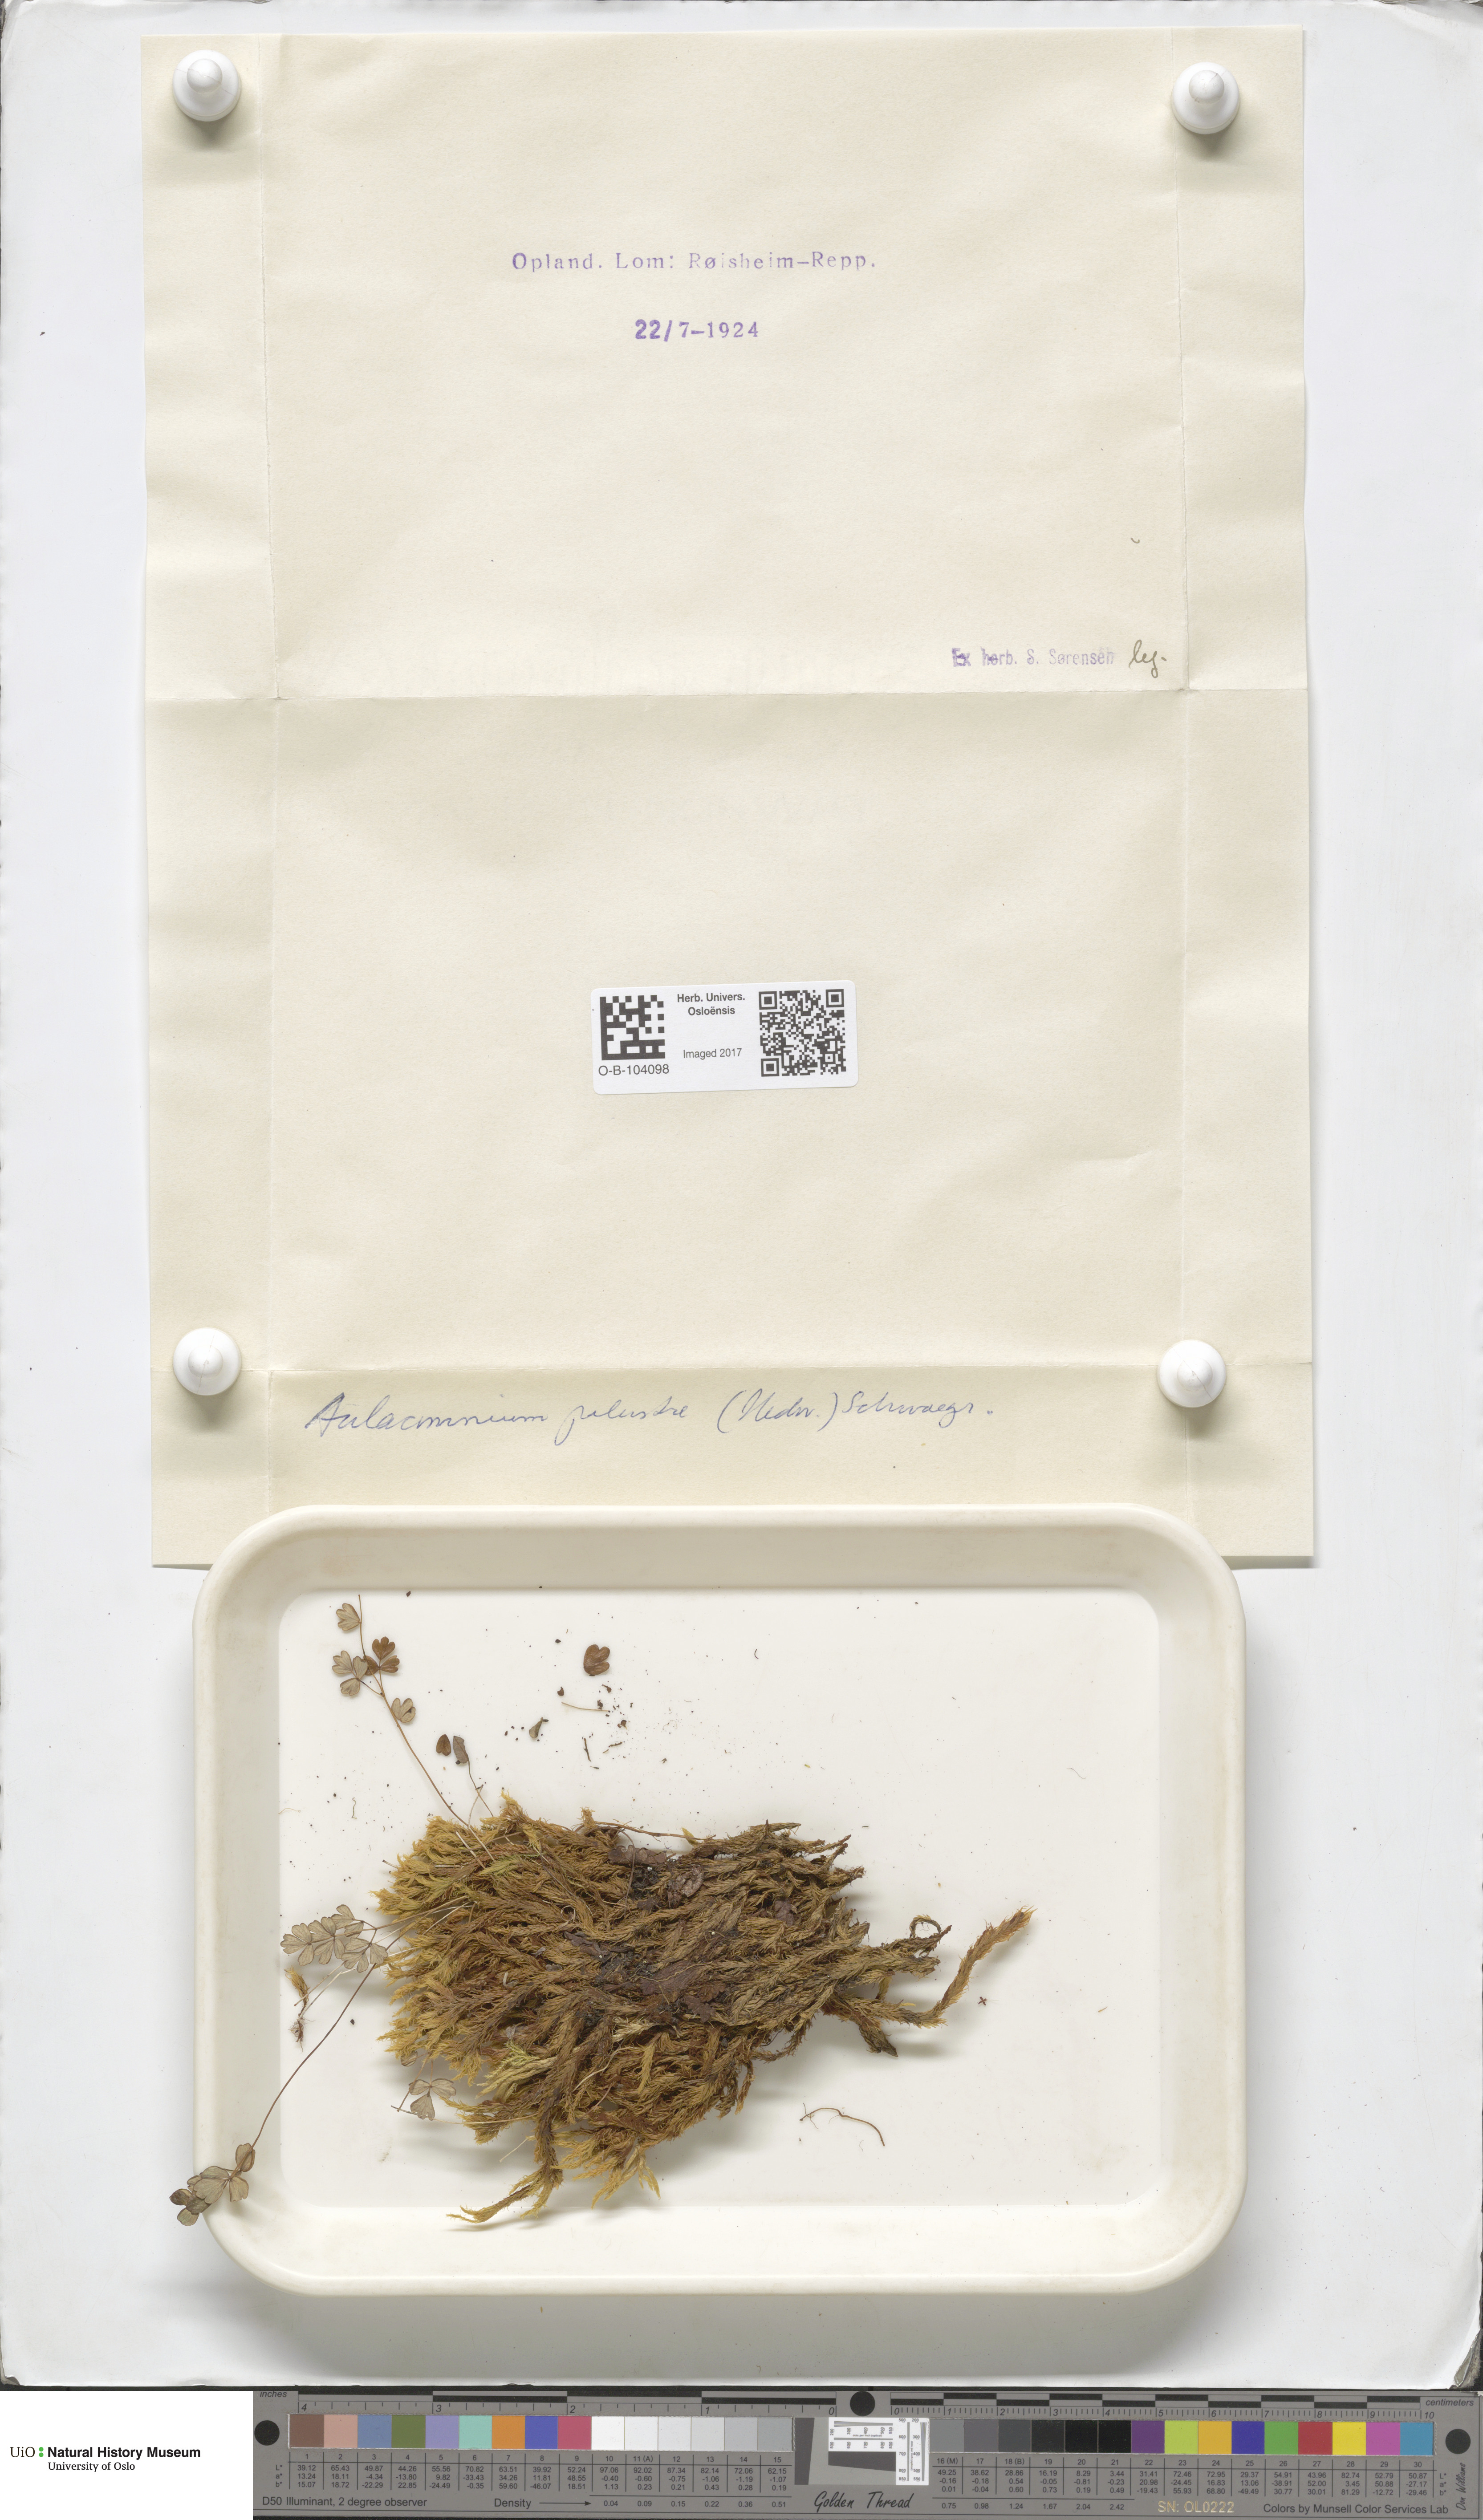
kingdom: Plantae
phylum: Bryophyta
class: Bryopsida
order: Aulacomniales
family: Aulacomniaceae
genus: Aulacomnium
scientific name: Aulacomnium palustre
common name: Bog groove-moss
